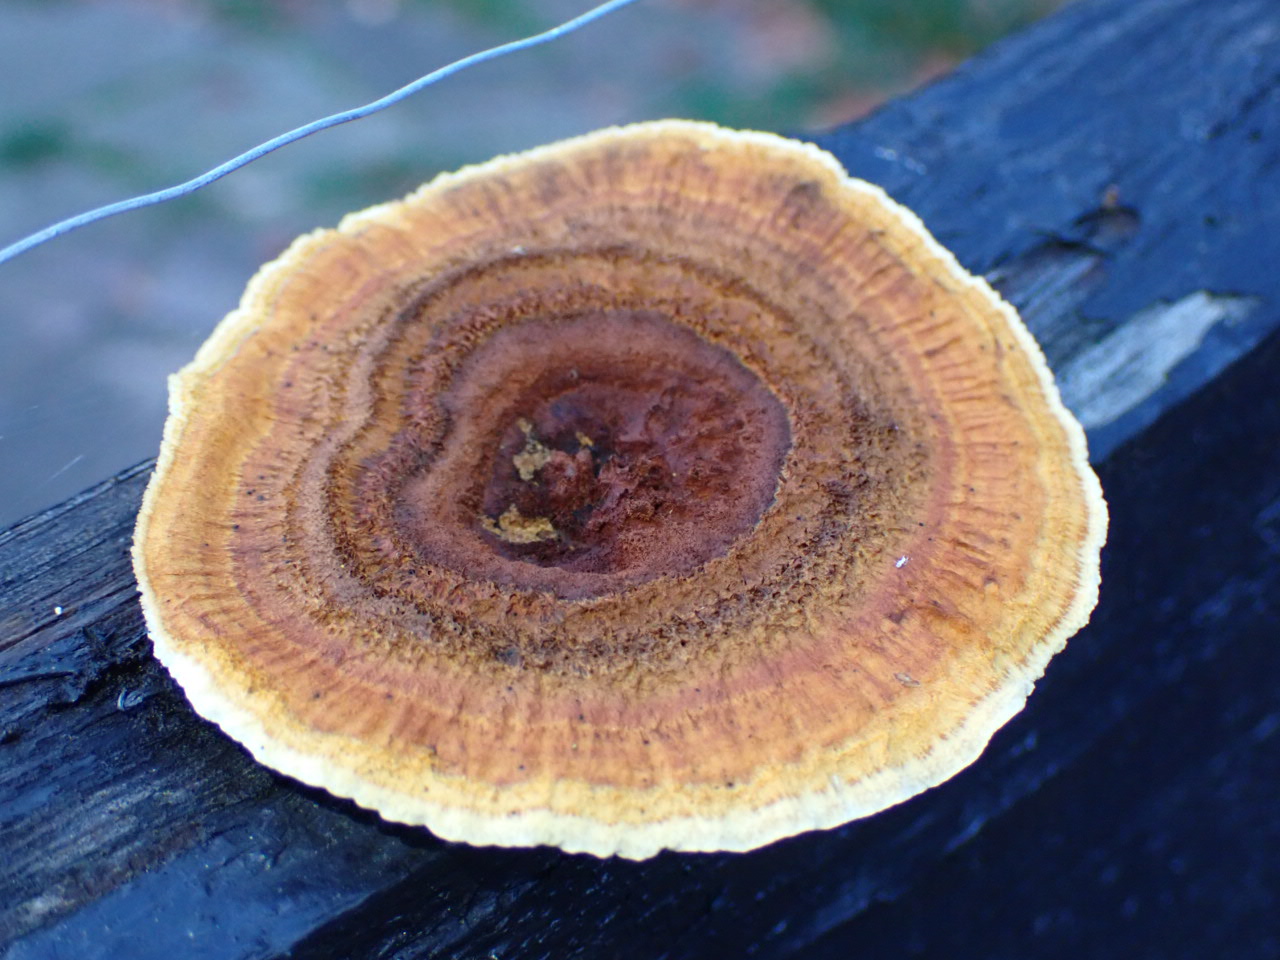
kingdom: Fungi
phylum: Basidiomycota
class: Agaricomycetes
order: Gloeophyllales
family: Gloeophyllaceae
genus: Gloeophyllum
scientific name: Gloeophyllum sepiarium
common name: fyrre-korkhat
